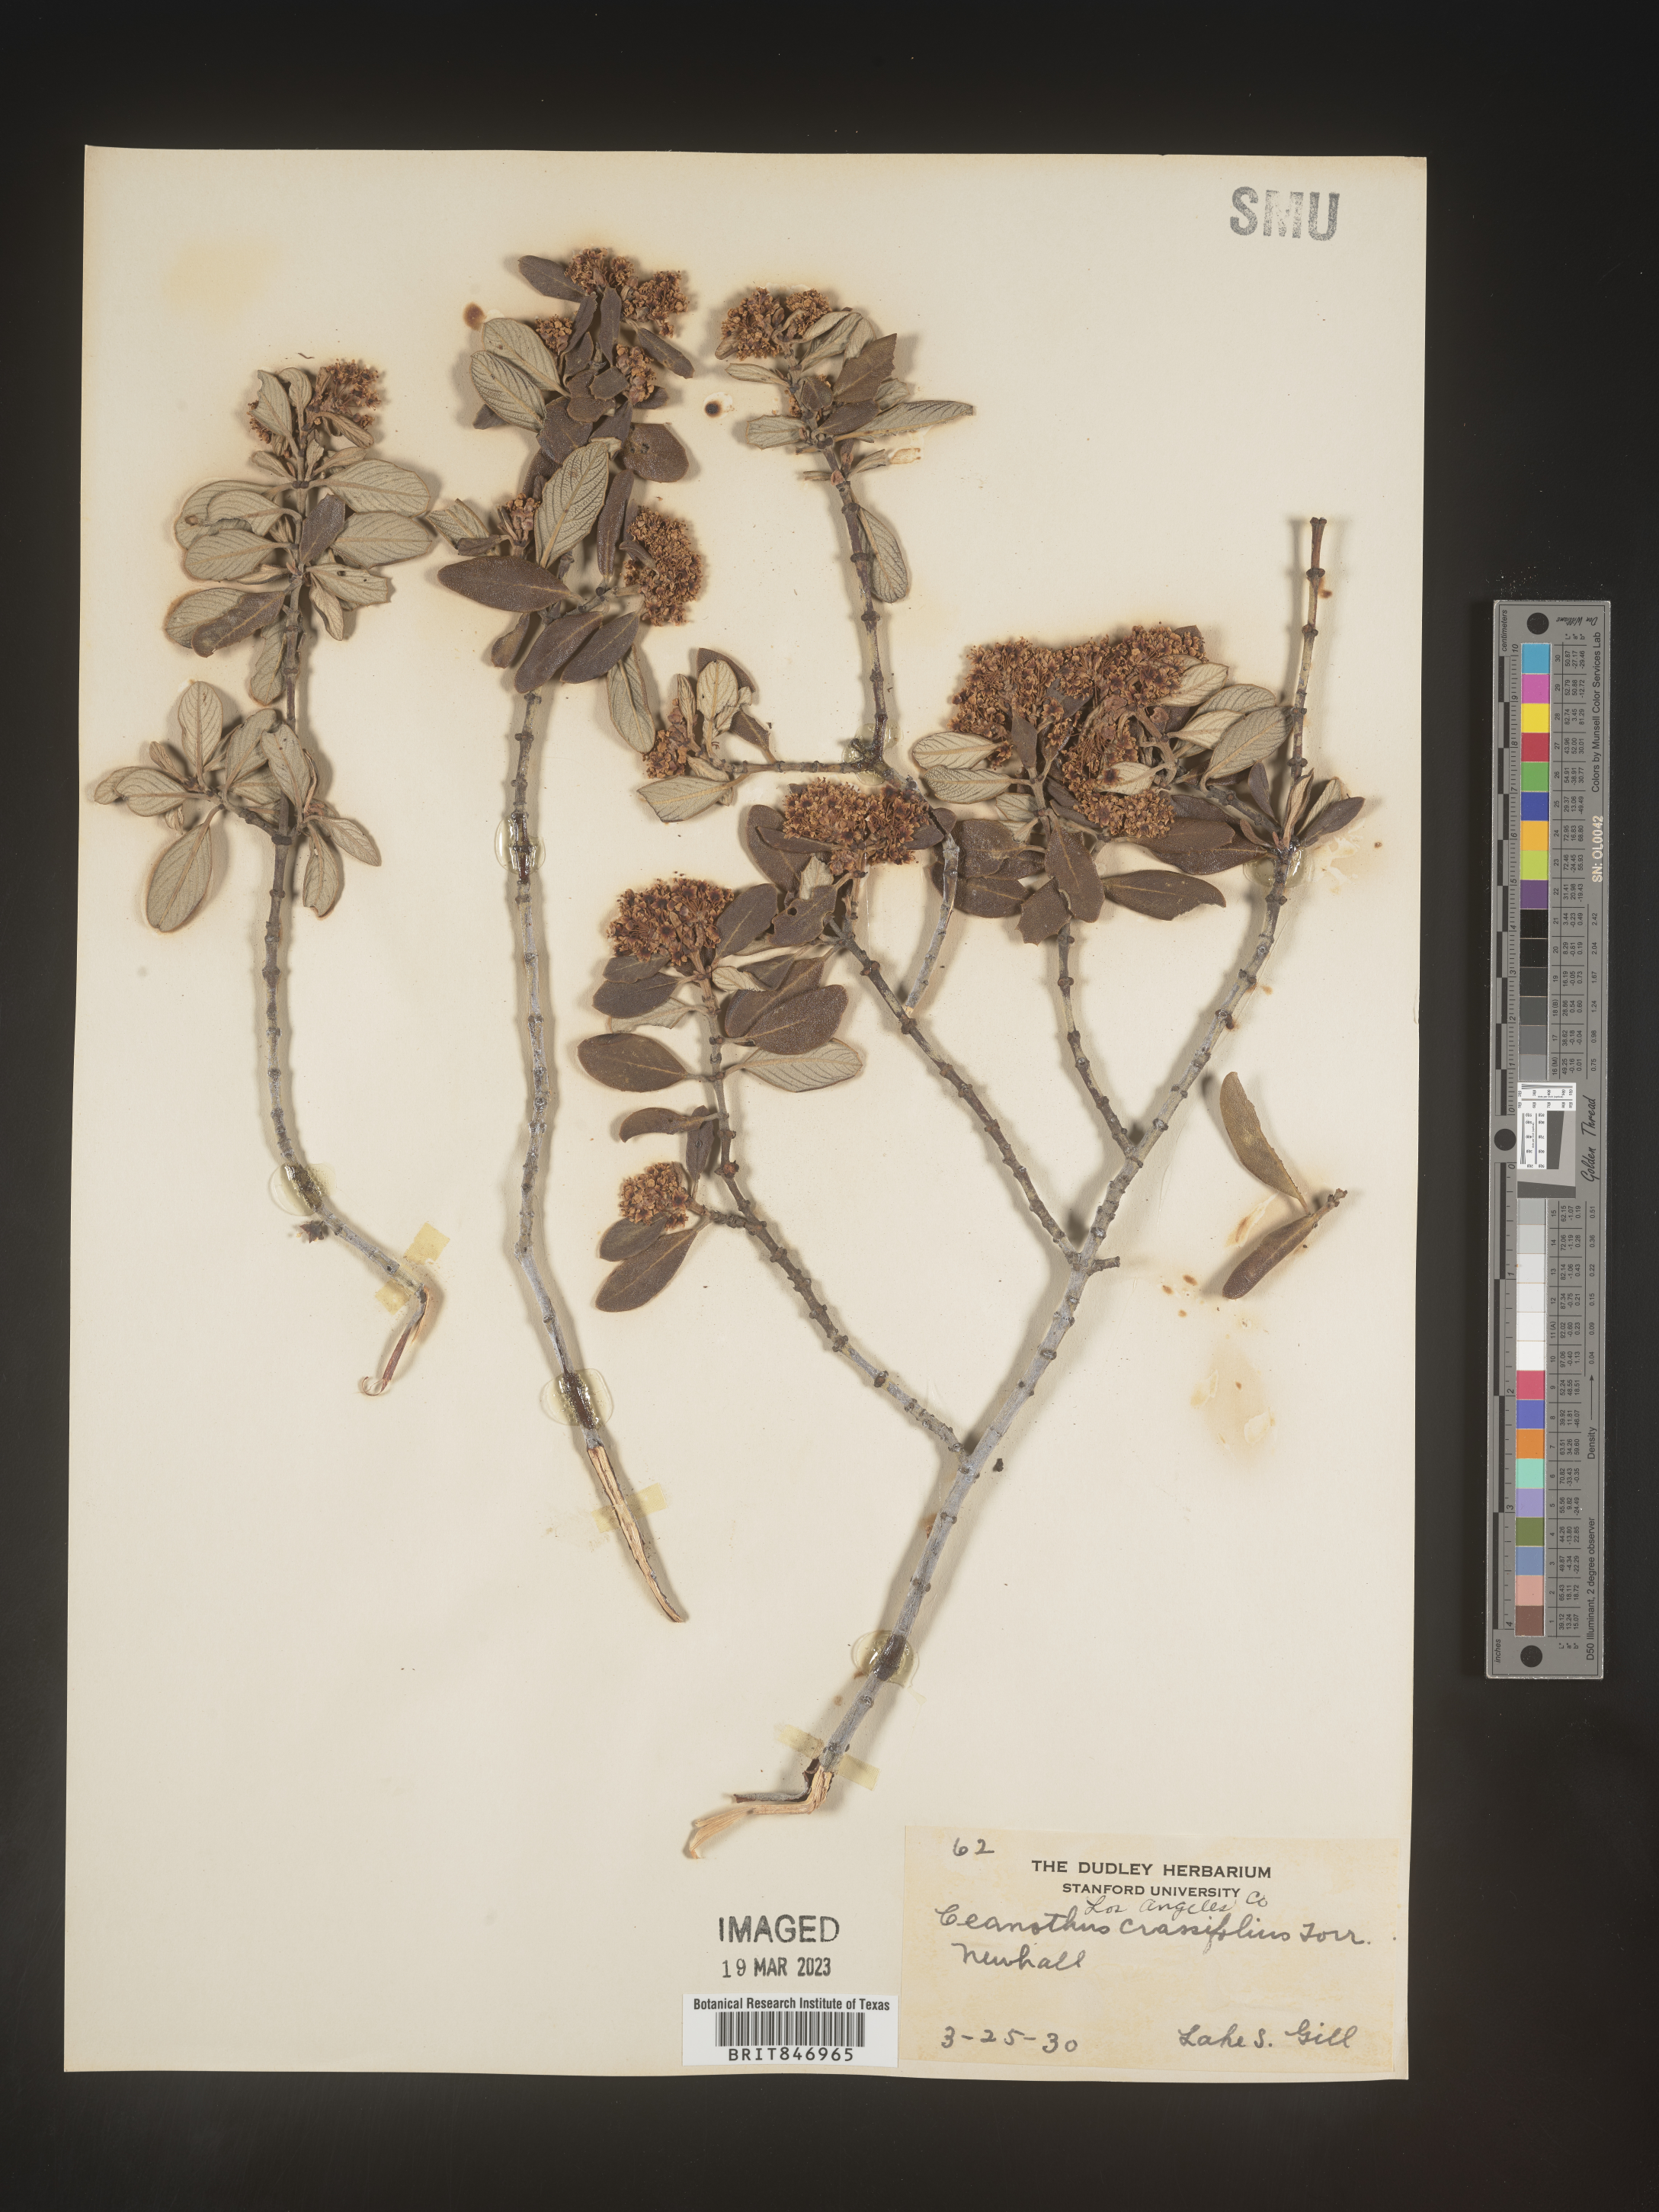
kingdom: Plantae
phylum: Tracheophyta
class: Magnoliopsida
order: Rosales
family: Rhamnaceae
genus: Ceanothus
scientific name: Ceanothus crassifolius
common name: Hoaryleaf ceanothus
